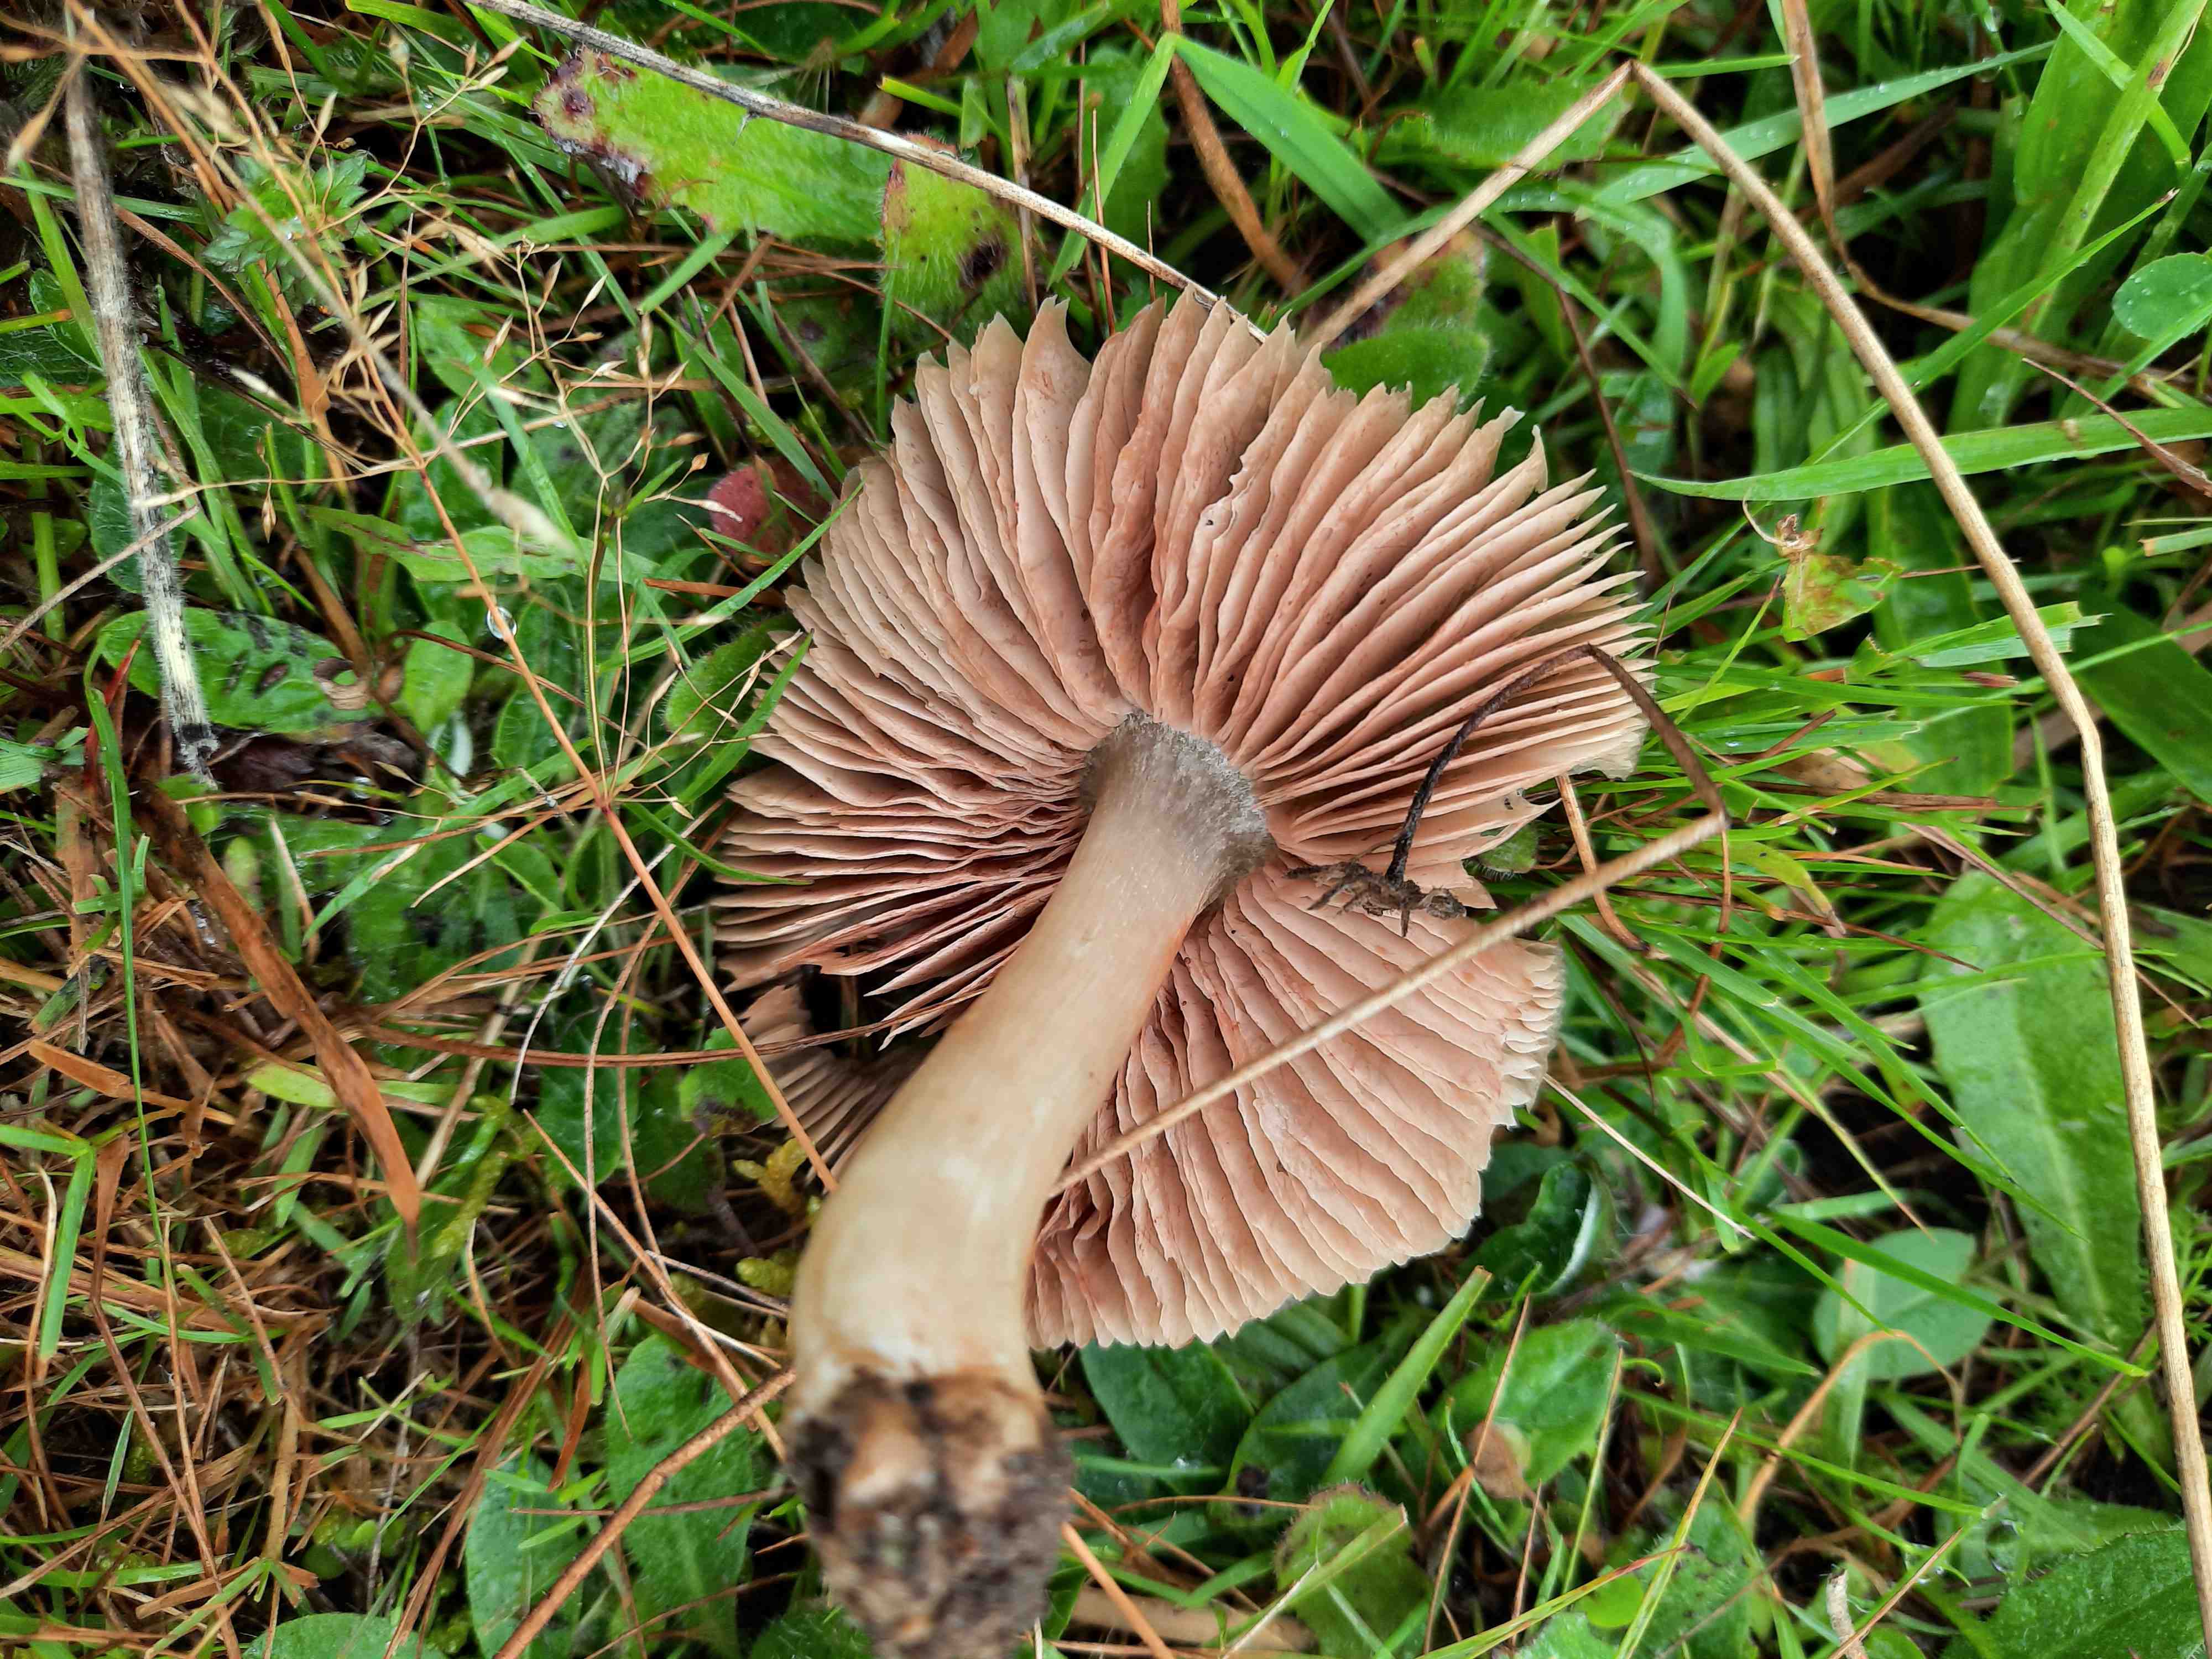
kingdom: Fungi
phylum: Basidiomycota
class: Agaricomycetes
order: Agaricales
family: Entolomataceae
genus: Entoloma
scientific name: Entoloma prunuloides
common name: mel-rødblad
